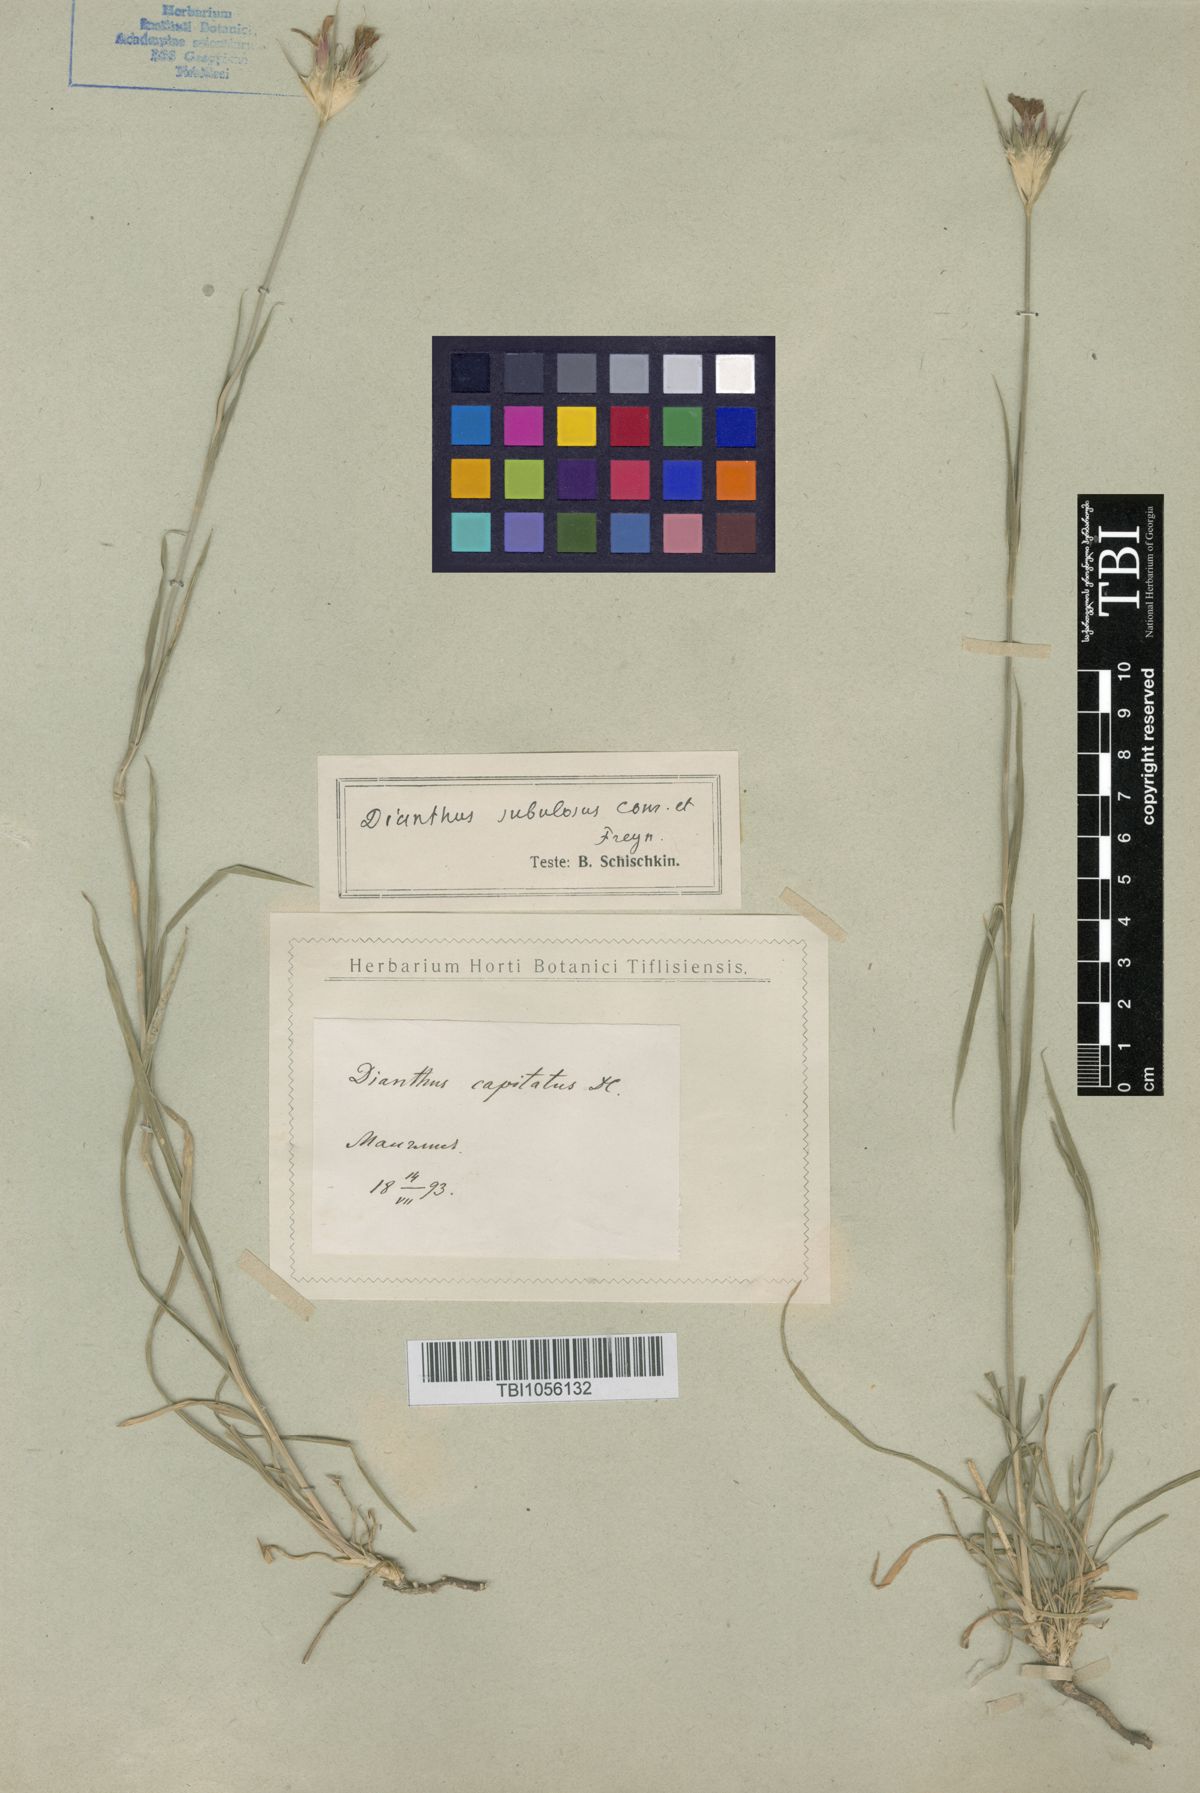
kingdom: Plantae
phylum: Tracheophyta
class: Magnoliopsida
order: Caryophyllales
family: Caryophyllaceae
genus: Dianthus
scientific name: Dianthus subulosus
